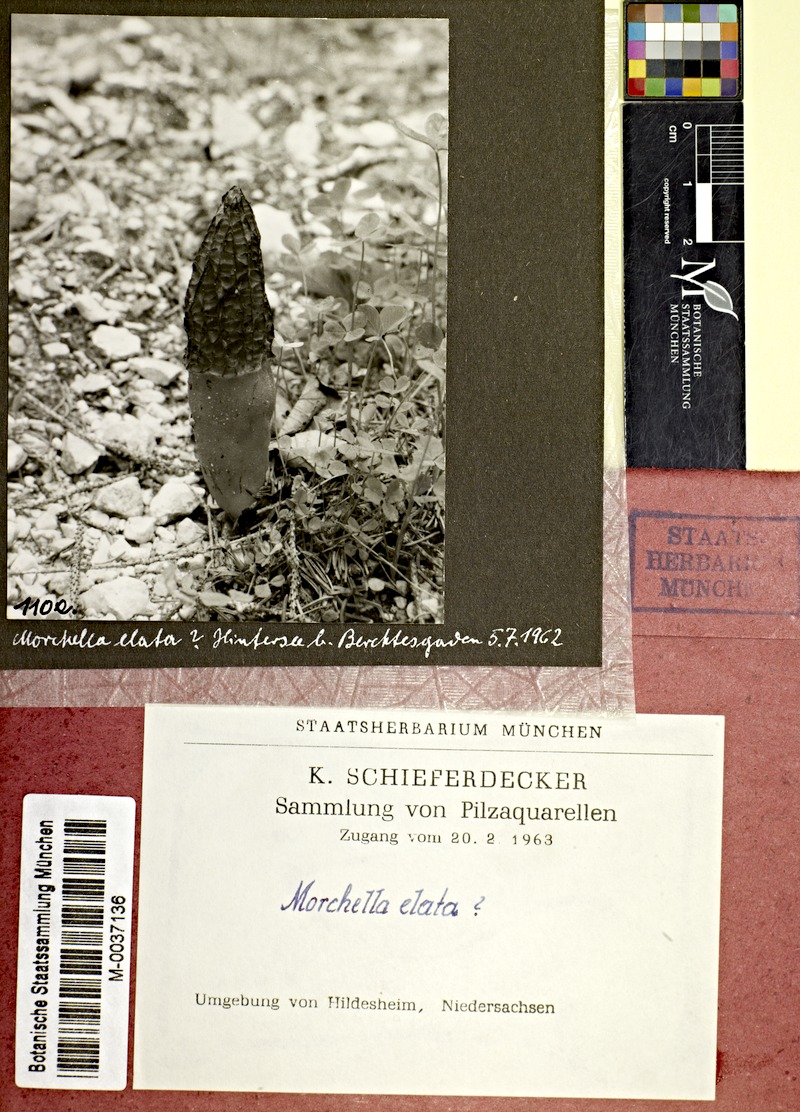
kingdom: Fungi
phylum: Ascomycota
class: Pezizomycetes
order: Pezizales
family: Morchellaceae
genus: Morchella
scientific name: Morchella elata
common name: Black morel
